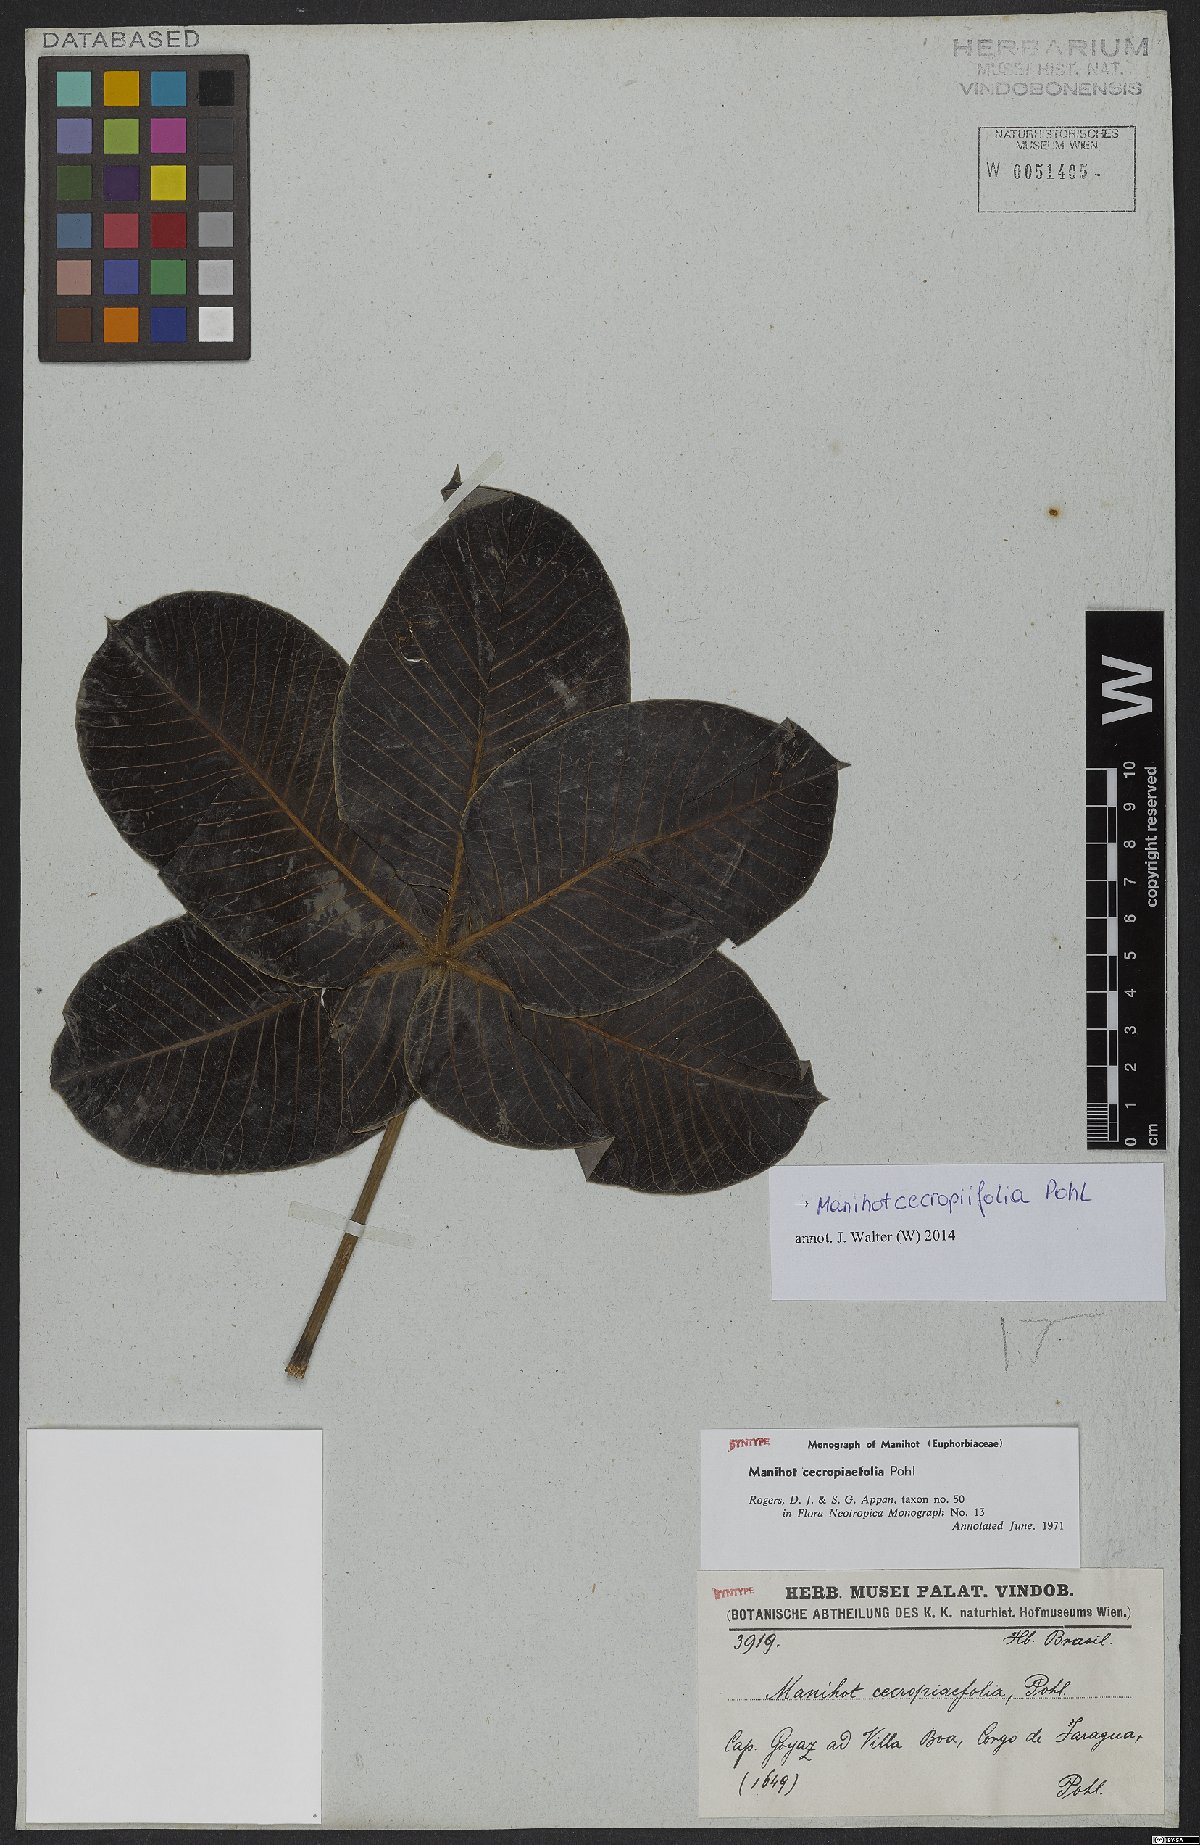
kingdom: Plantae
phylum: Tracheophyta
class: Magnoliopsida
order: Malpighiales
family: Euphorbiaceae
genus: Manihot
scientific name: Manihot cecropiifolia
